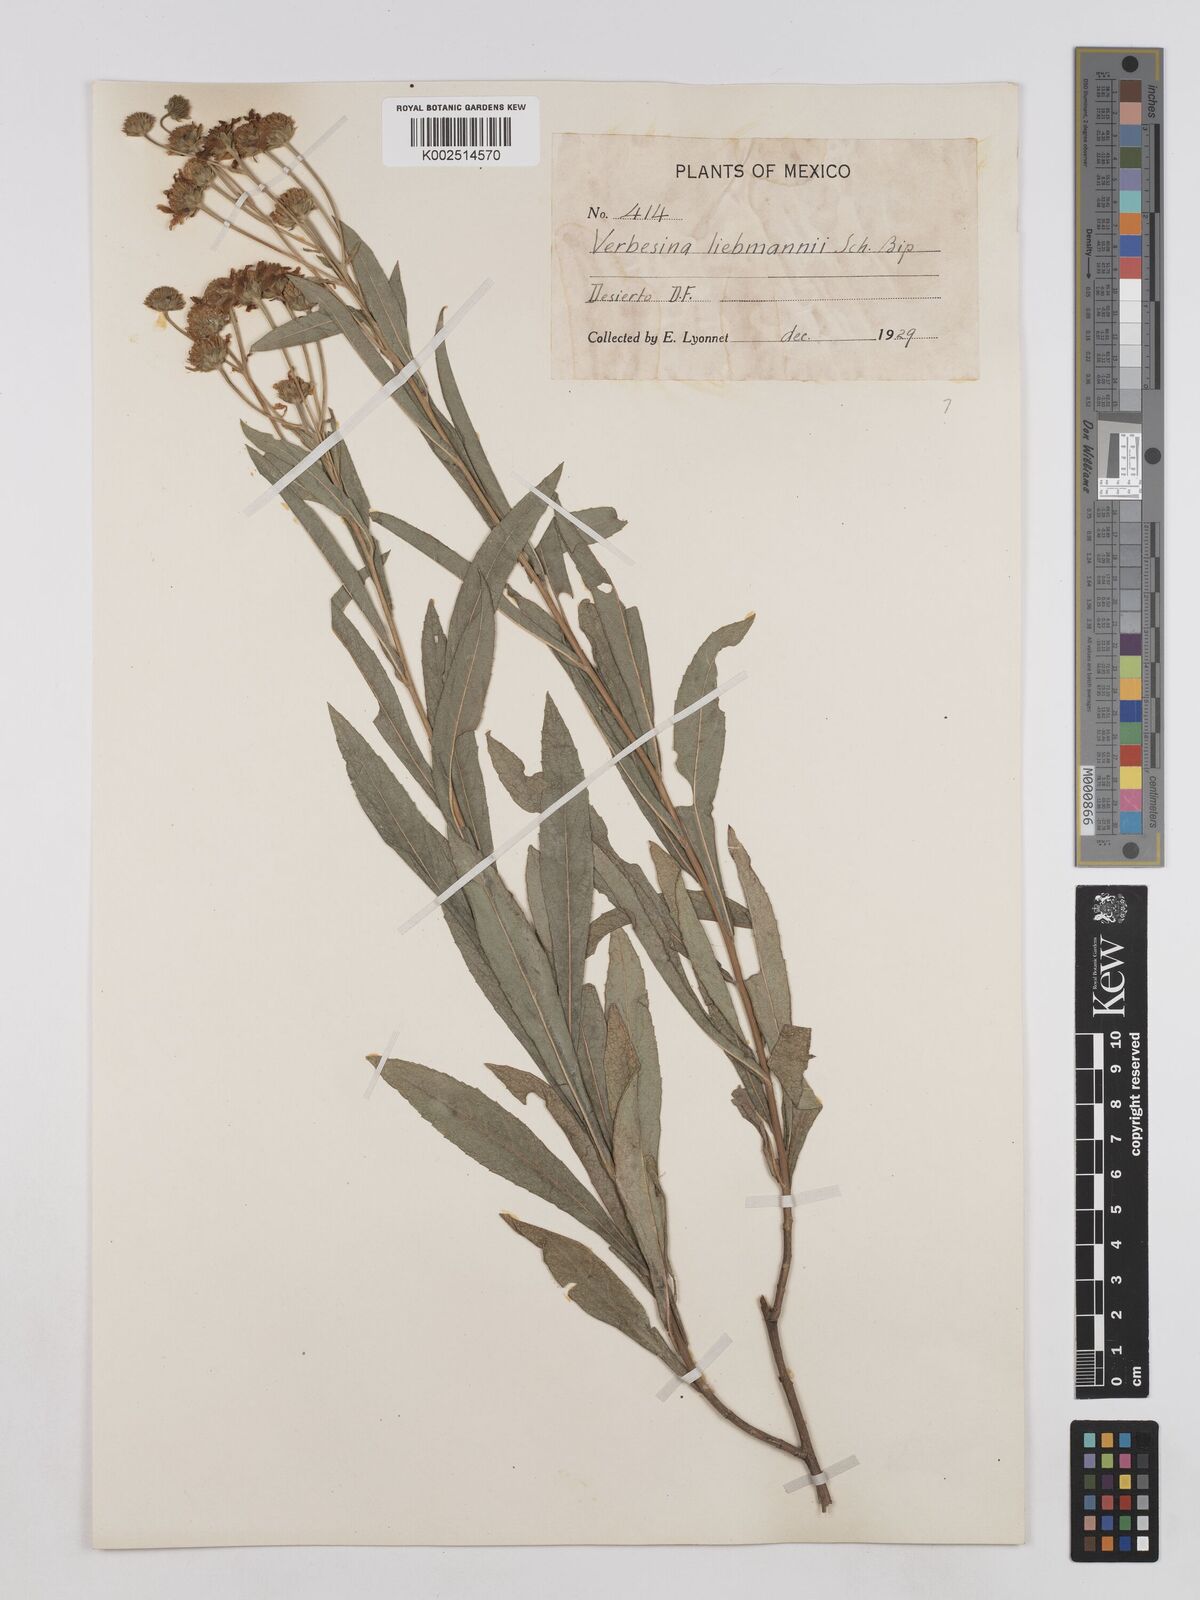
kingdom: Plantae
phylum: Tracheophyta
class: Magnoliopsida
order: Asterales
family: Asteraceae
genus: Verbesina
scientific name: Verbesina liebmannii
